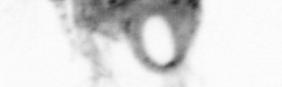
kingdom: Animalia
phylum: Arthropoda
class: Copepoda
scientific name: Copepoda
